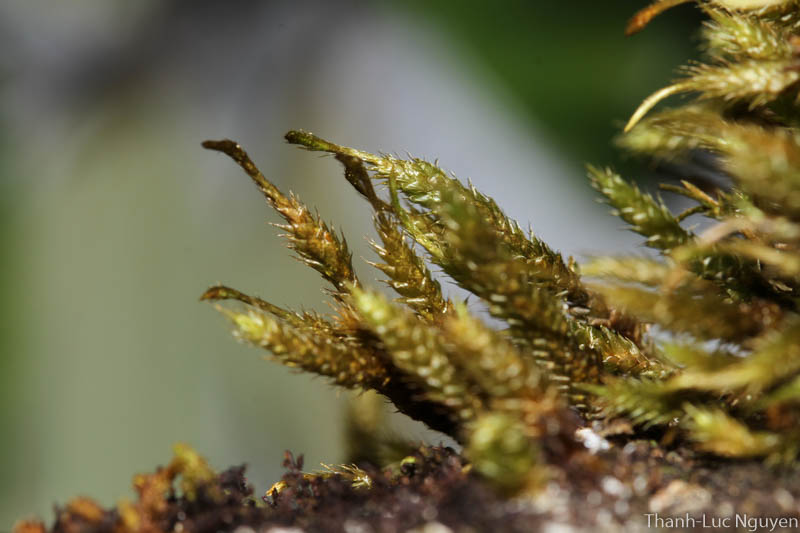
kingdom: Plantae
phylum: Bryophyta
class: Bryopsida
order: Hypnales
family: Pterobryaceae
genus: Pterobryopsis
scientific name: Pterobryopsis crassicaulis
